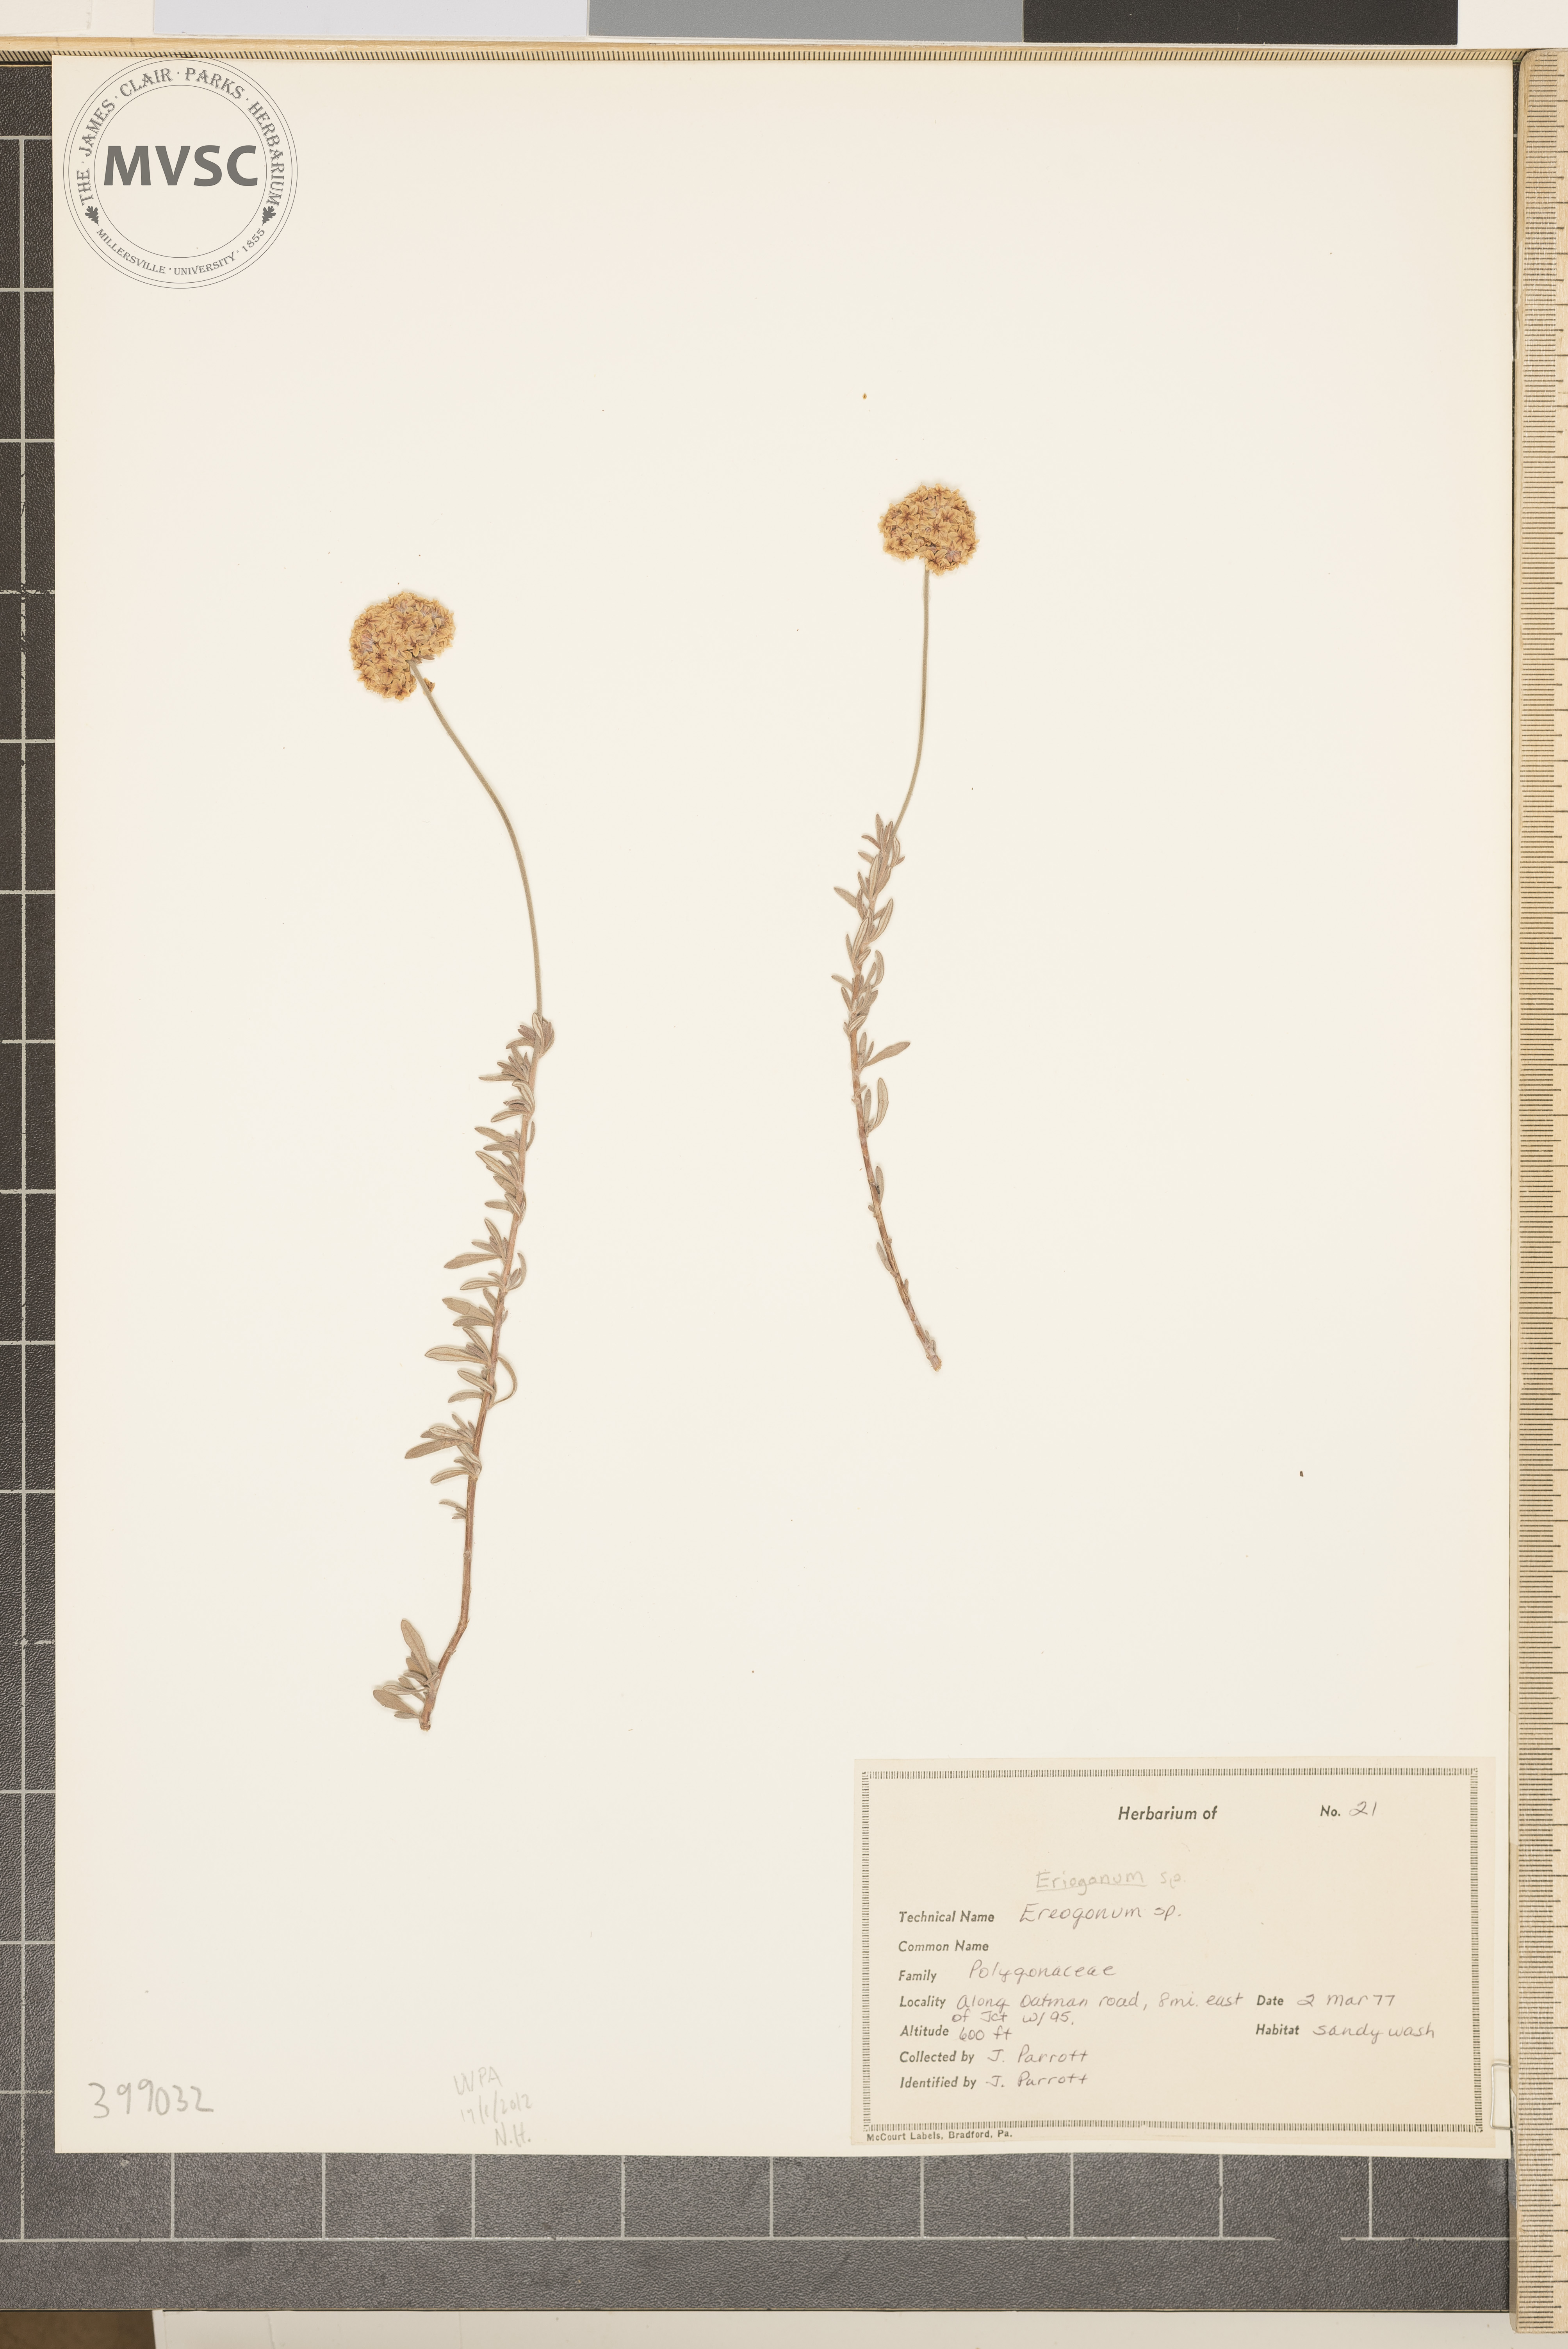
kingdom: Plantae
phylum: Tracheophyta
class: Magnoliopsida
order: Caryophyllales
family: Polygonaceae
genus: Eriogonum
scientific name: Eriogonum
